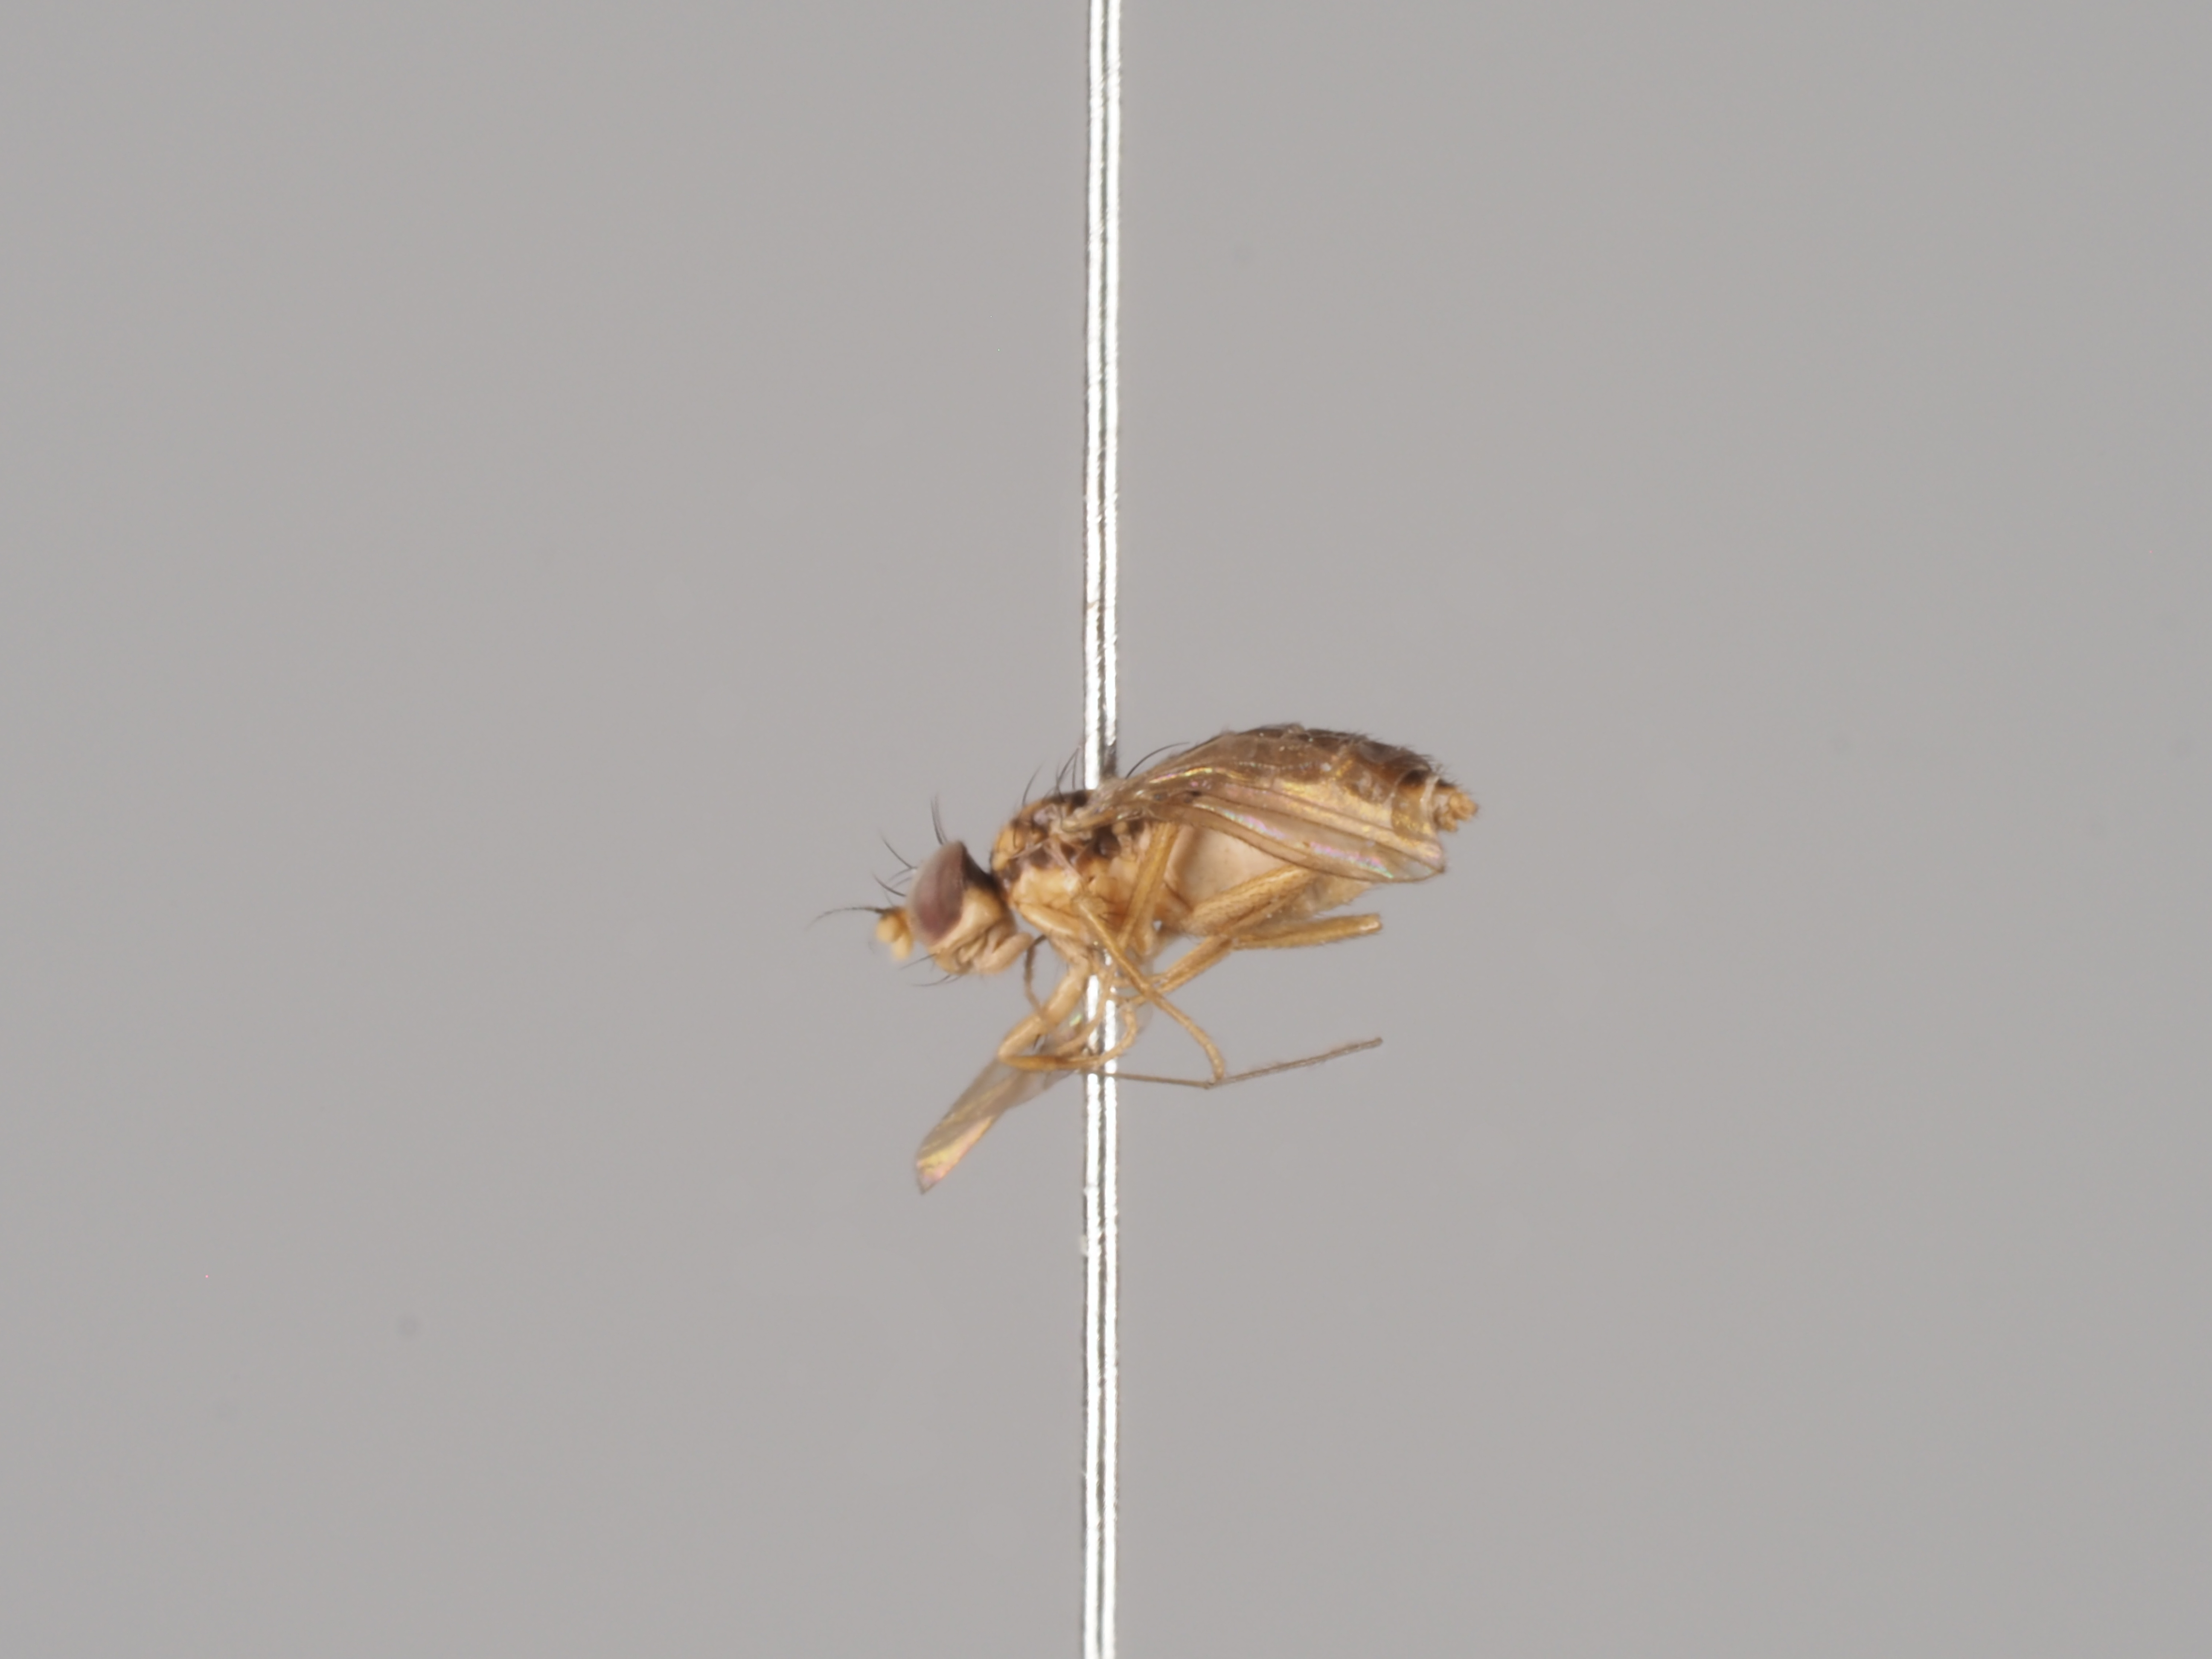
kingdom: Animalia
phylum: Arthropoda
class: Insecta
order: Diptera
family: Anthomyzidae
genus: Stiphrosoma
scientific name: Stiphrosoma laetum
